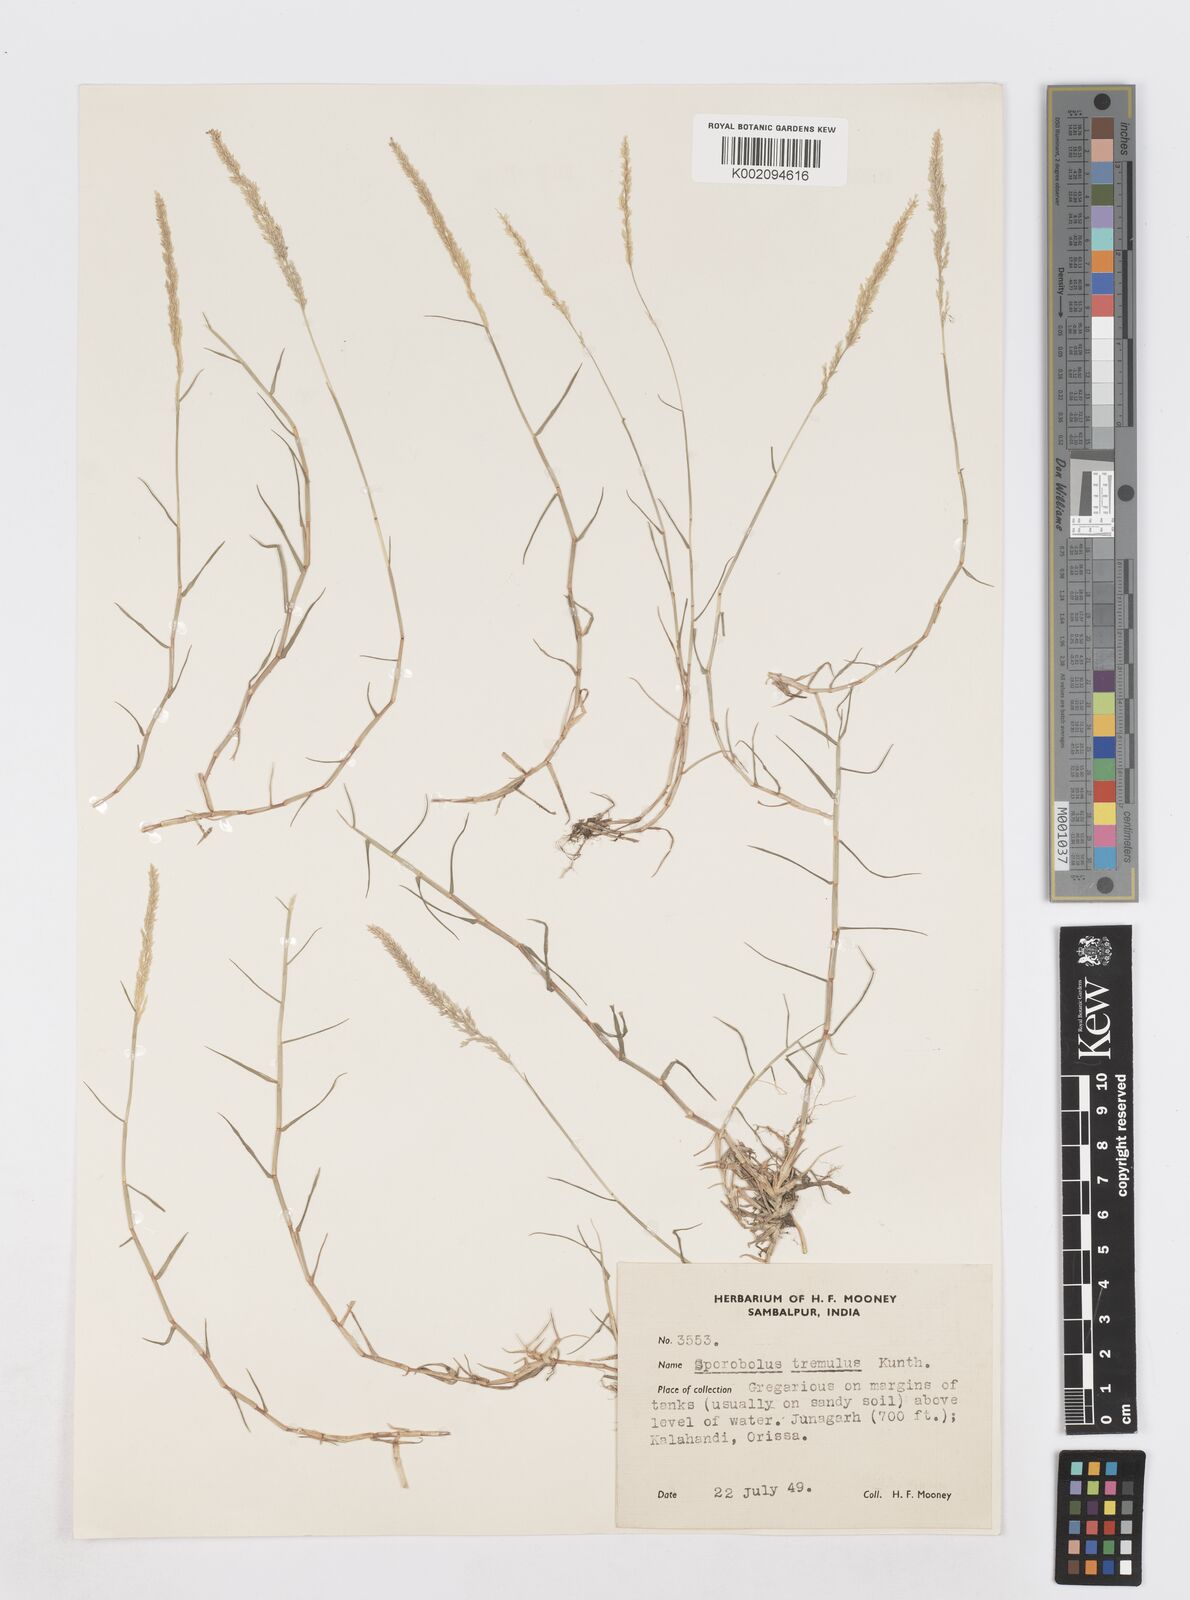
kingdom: Plantae
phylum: Tracheophyta
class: Liliopsida
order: Poales
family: Poaceae
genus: Sporobolus
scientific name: Sporobolus virginicus
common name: Beach dropseed
